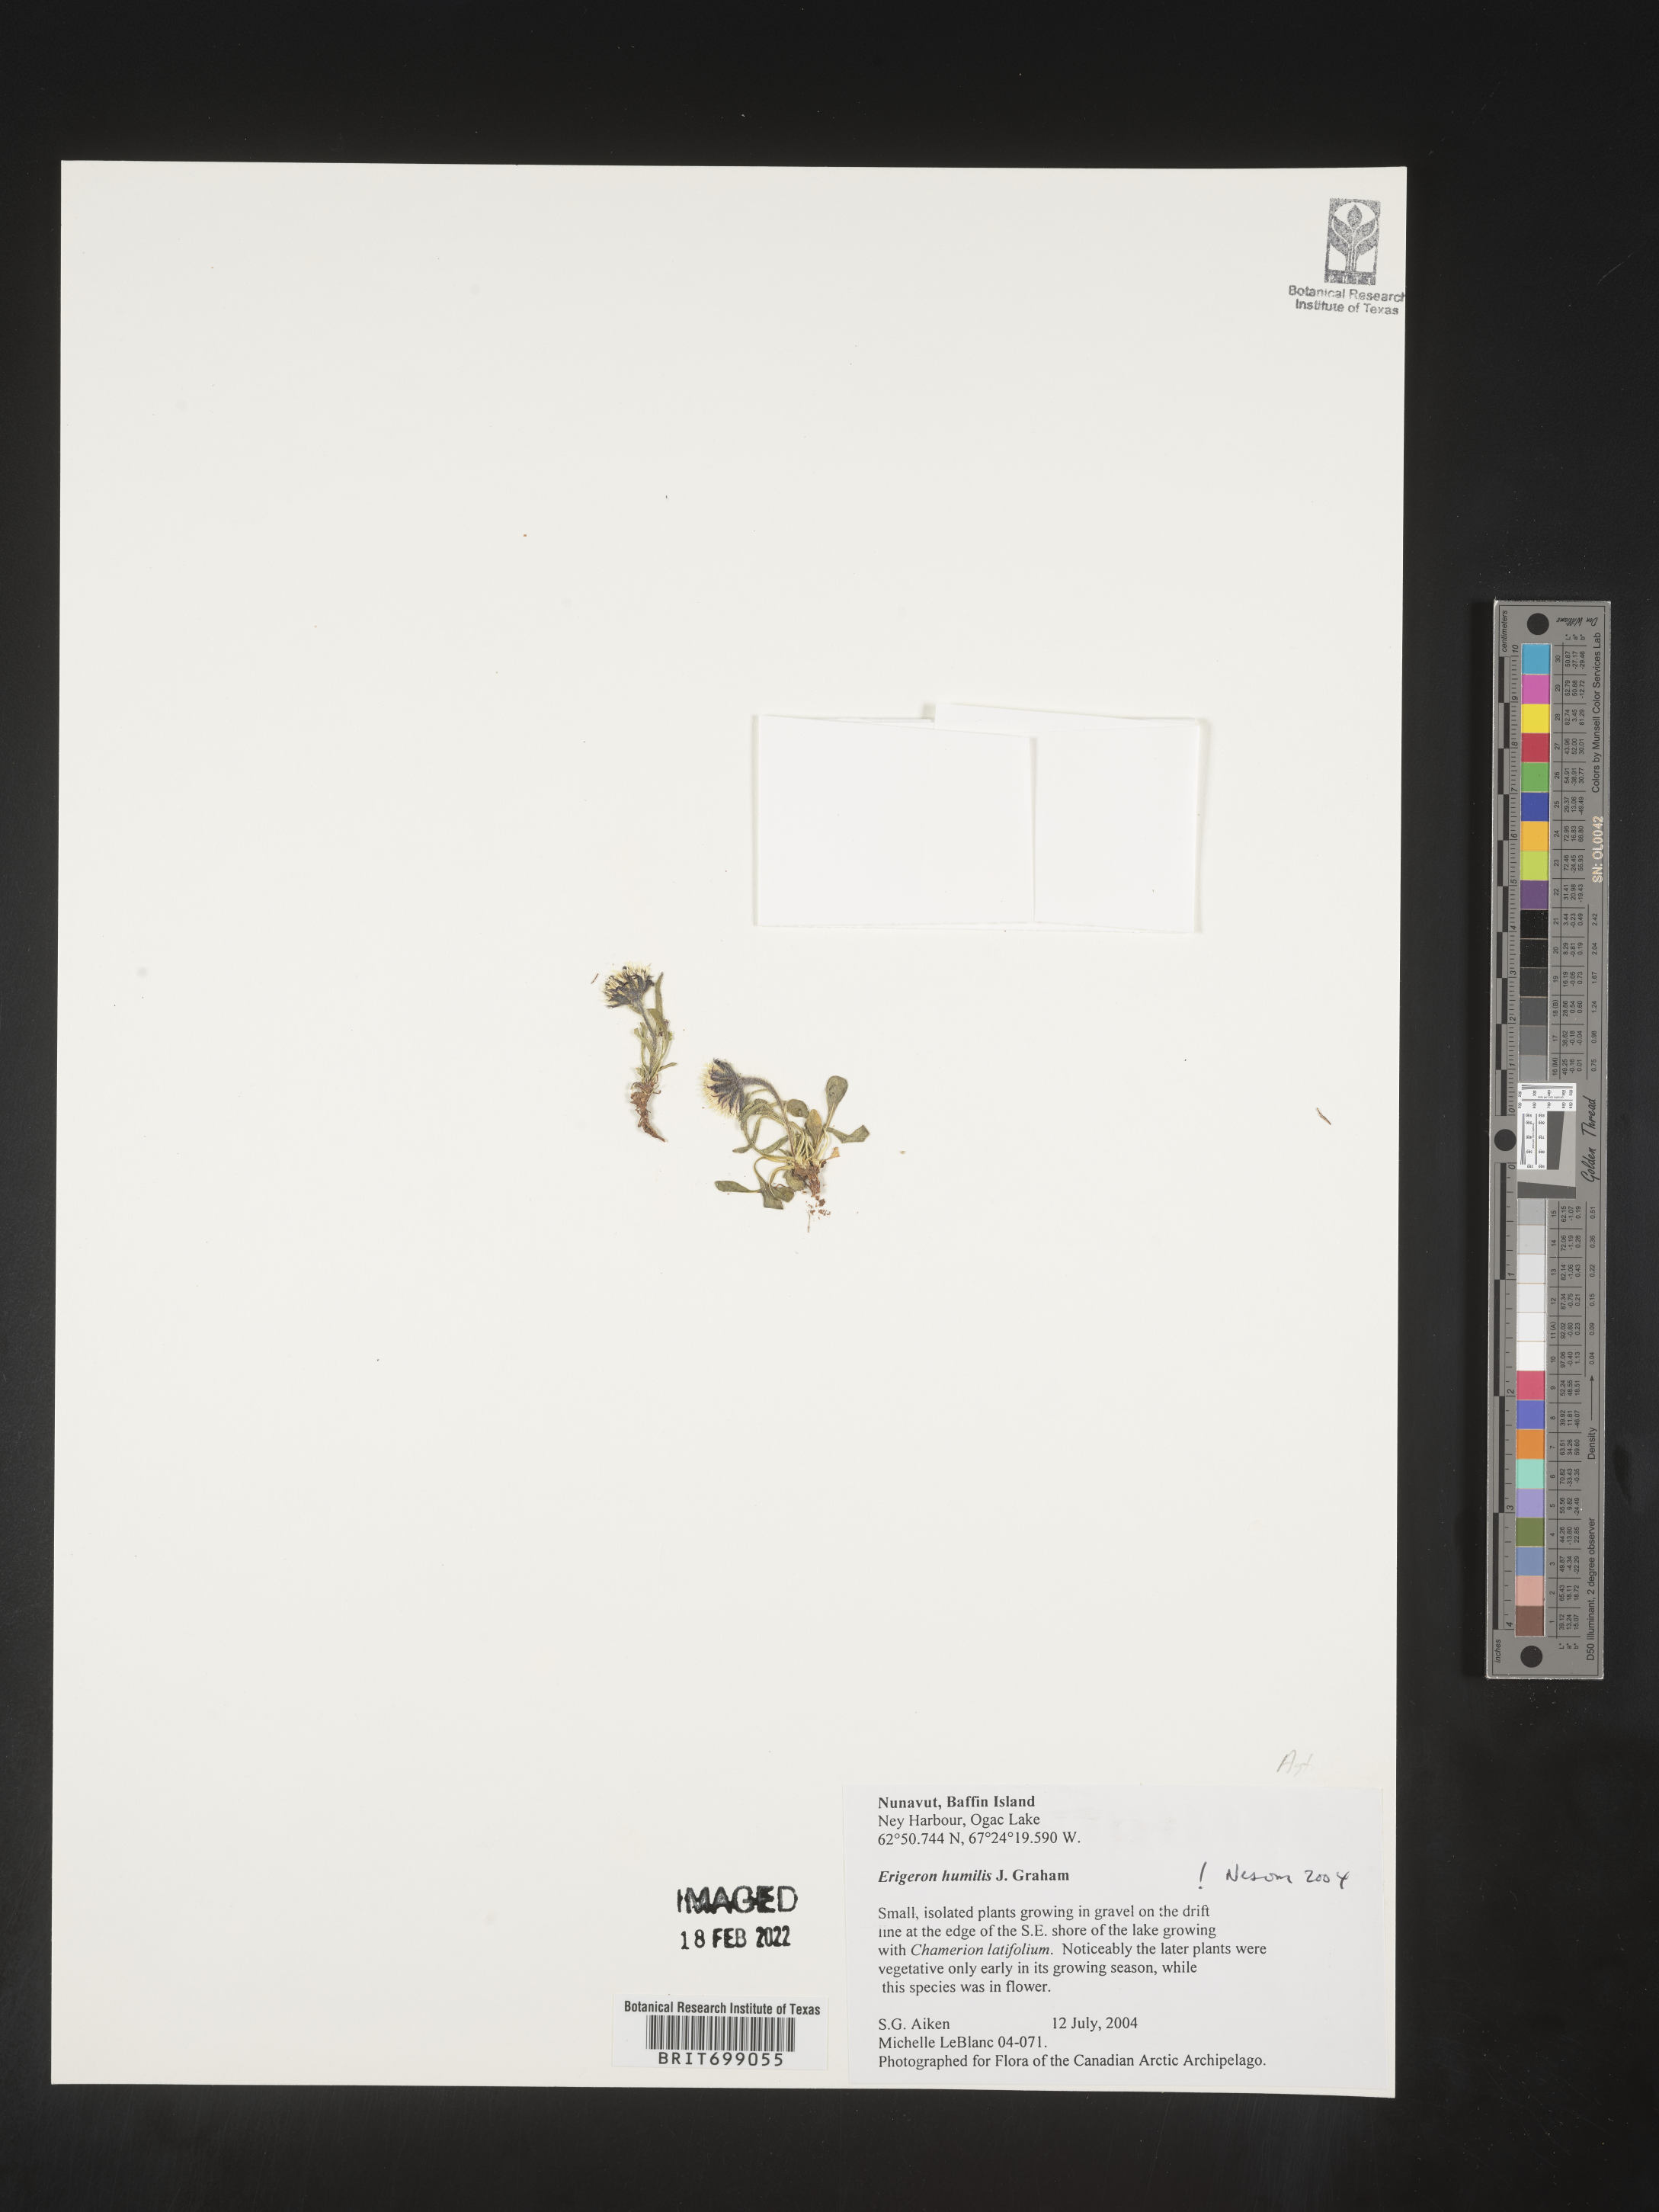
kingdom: Plantae
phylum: Tracheophyta
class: Magnoliopsida
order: Asterales
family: Asteraceae
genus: Erigeron
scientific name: Erigeron humilis
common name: Arctic-alpine fleabane
